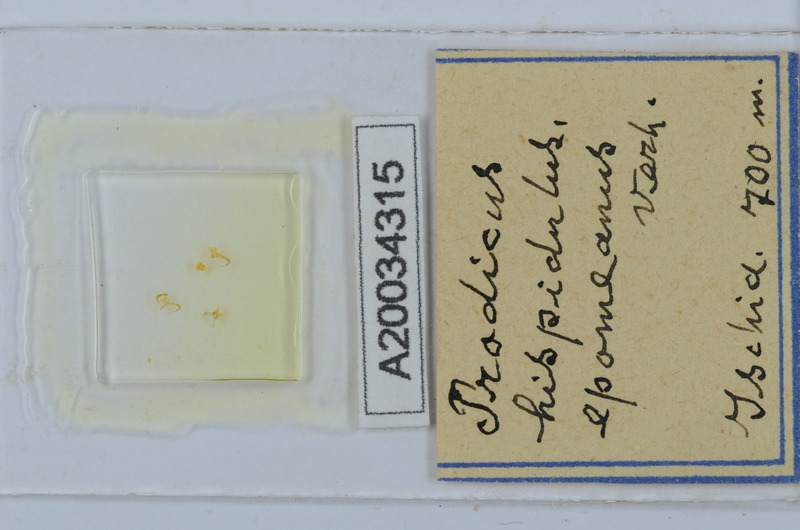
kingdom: Animalia
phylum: Arthropoda
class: Diplopoda
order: Chordeumatida
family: Anthroleucosomatidae
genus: Anamastigona
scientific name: Anamastigona hispidula
